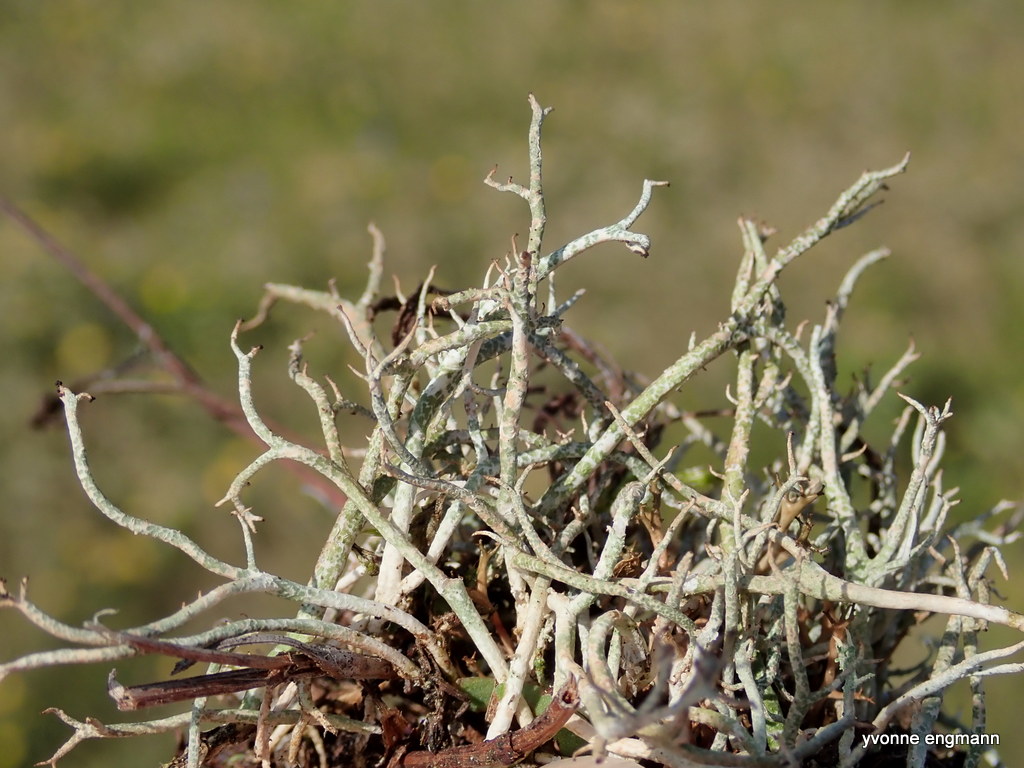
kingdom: Fungi
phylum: Ascomycota
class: Lecanoromycetes
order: Lecanorales
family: Cladoniaceae
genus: Cladonia
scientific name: Cladonia rangiformis
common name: spættet bægerlav
